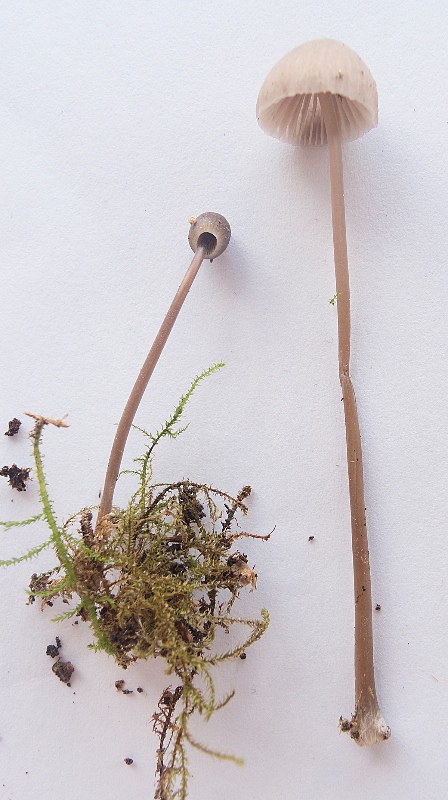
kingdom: Fungi
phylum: Basidiomycota
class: Agaricomycetes
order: Agaricales
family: Mycenaceae
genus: Mycena
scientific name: Mycena scirpicola
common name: flagelhåret huesvamp
